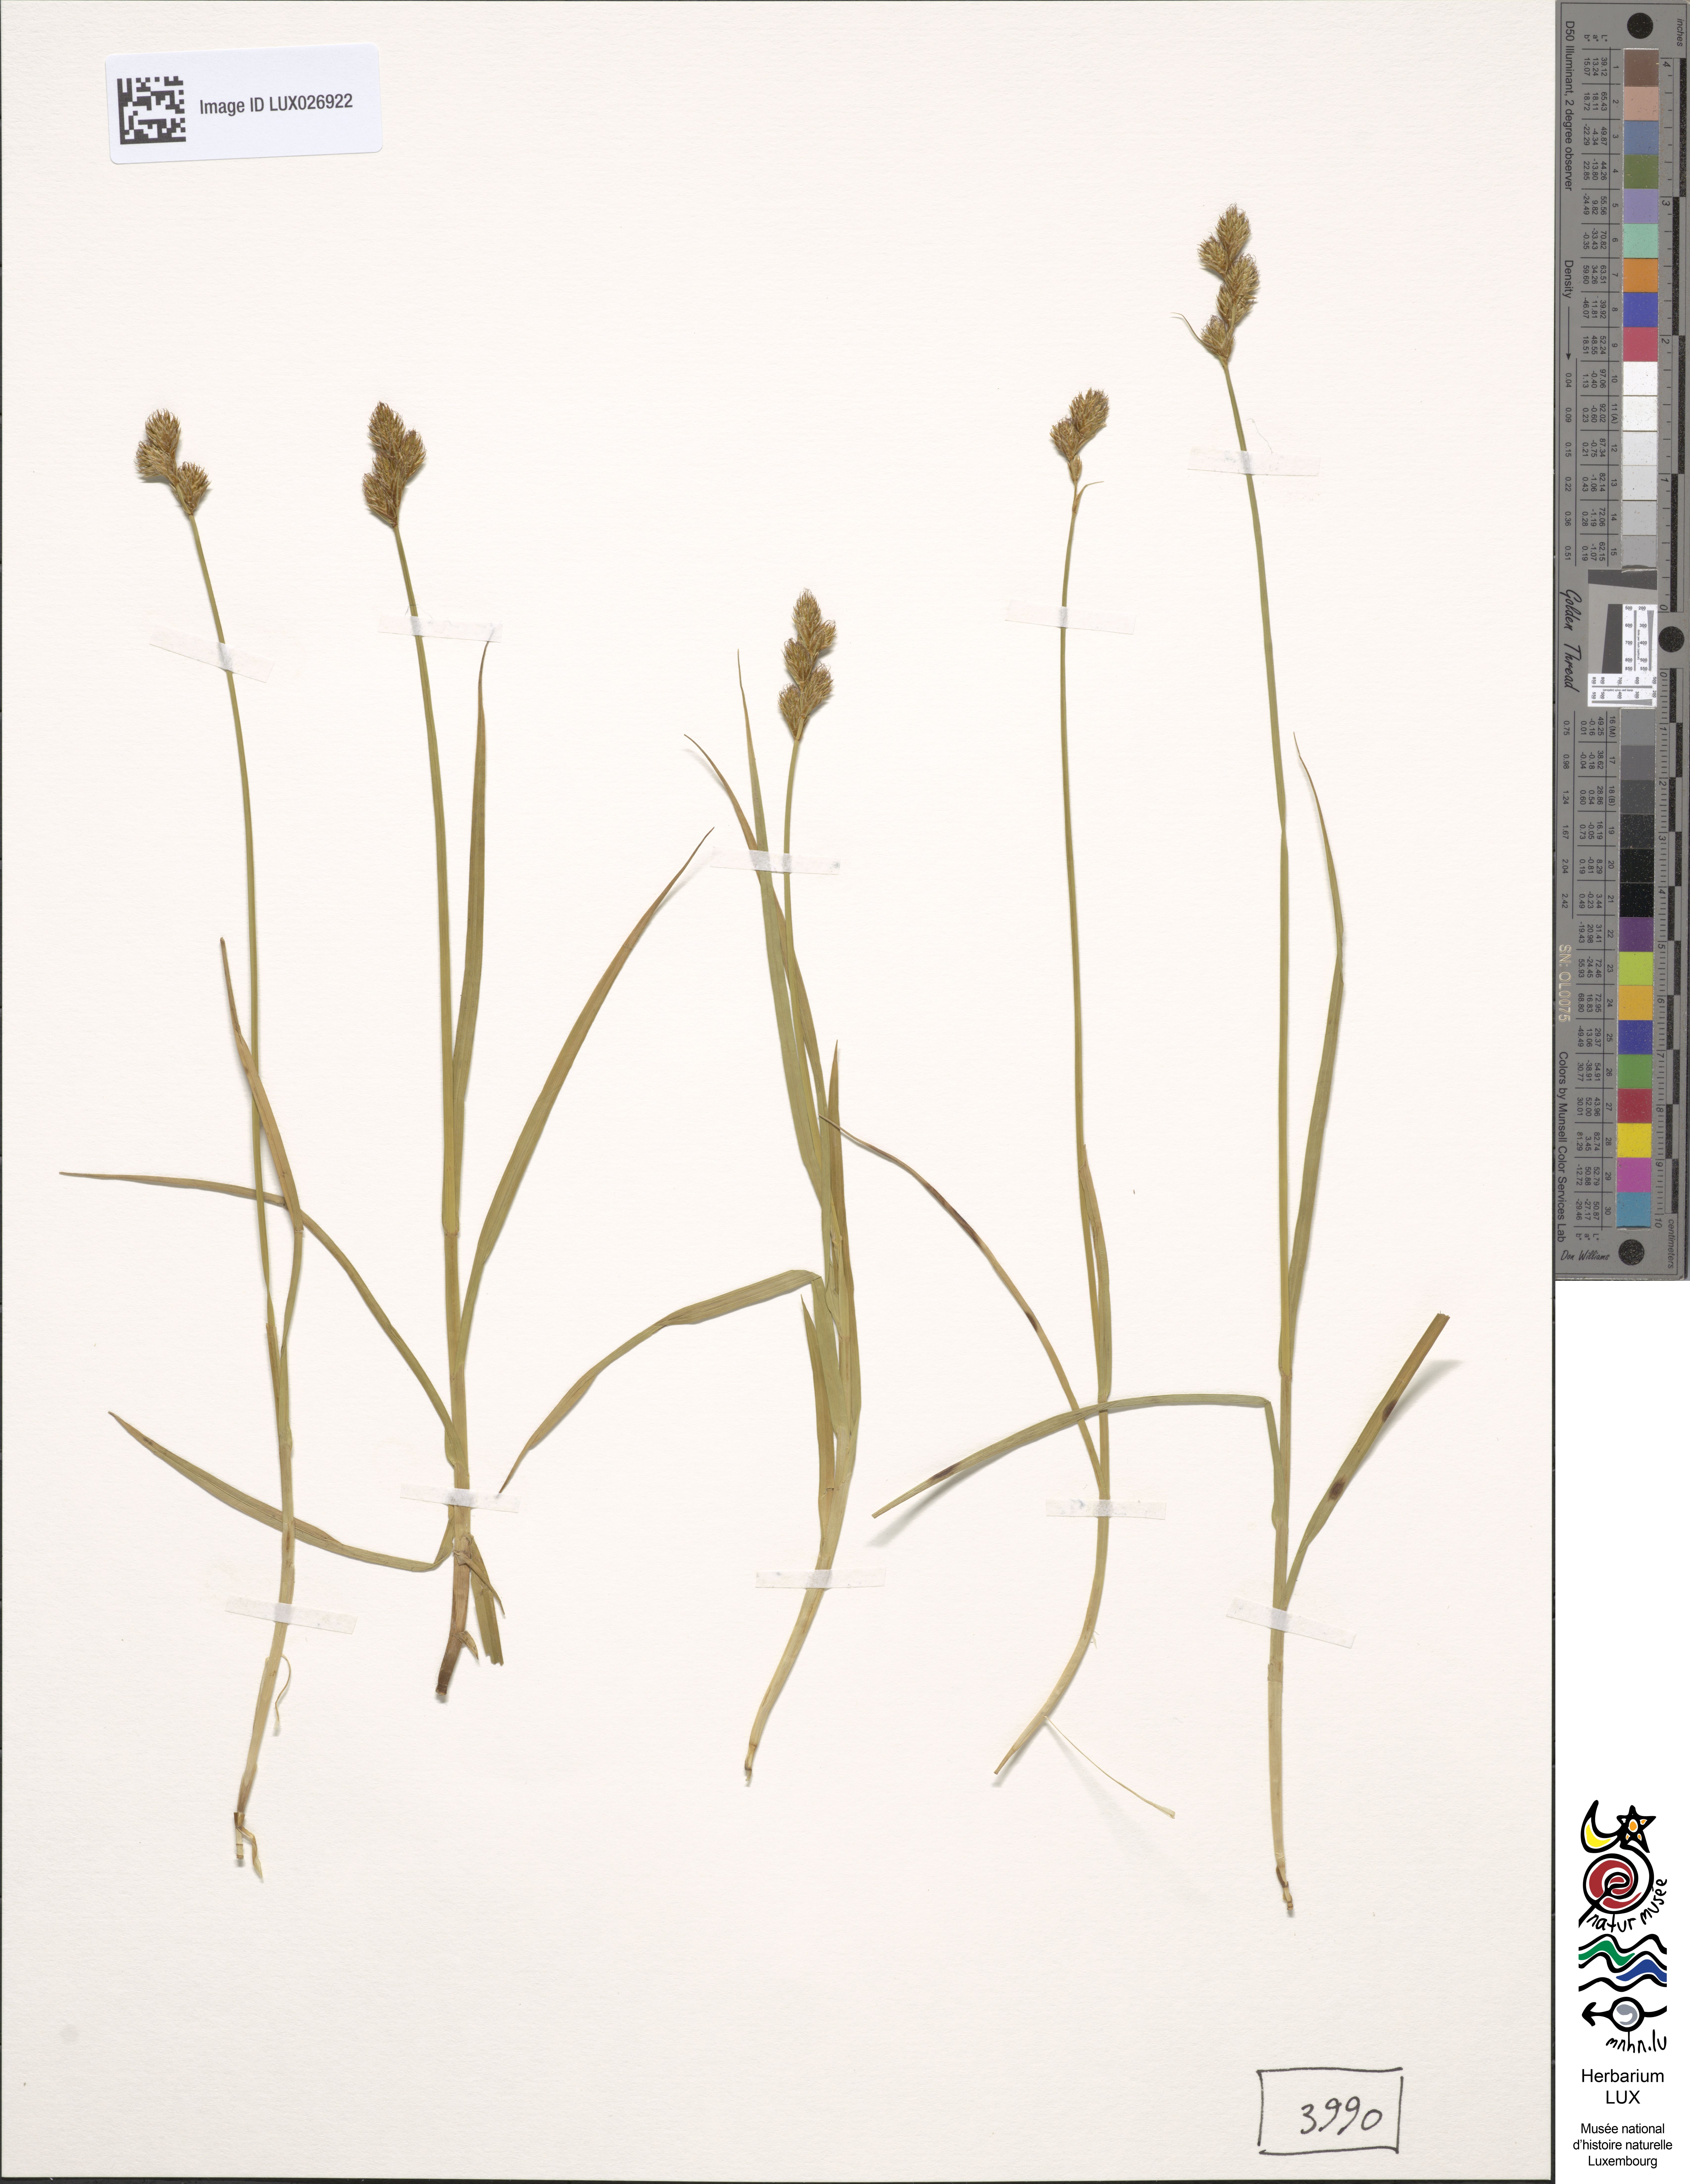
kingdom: Plantae
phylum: Tracheophyta
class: Liliopsida
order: Poales
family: Cyperaceae
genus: Carex
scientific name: Carex leporina
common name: Oval sedge
